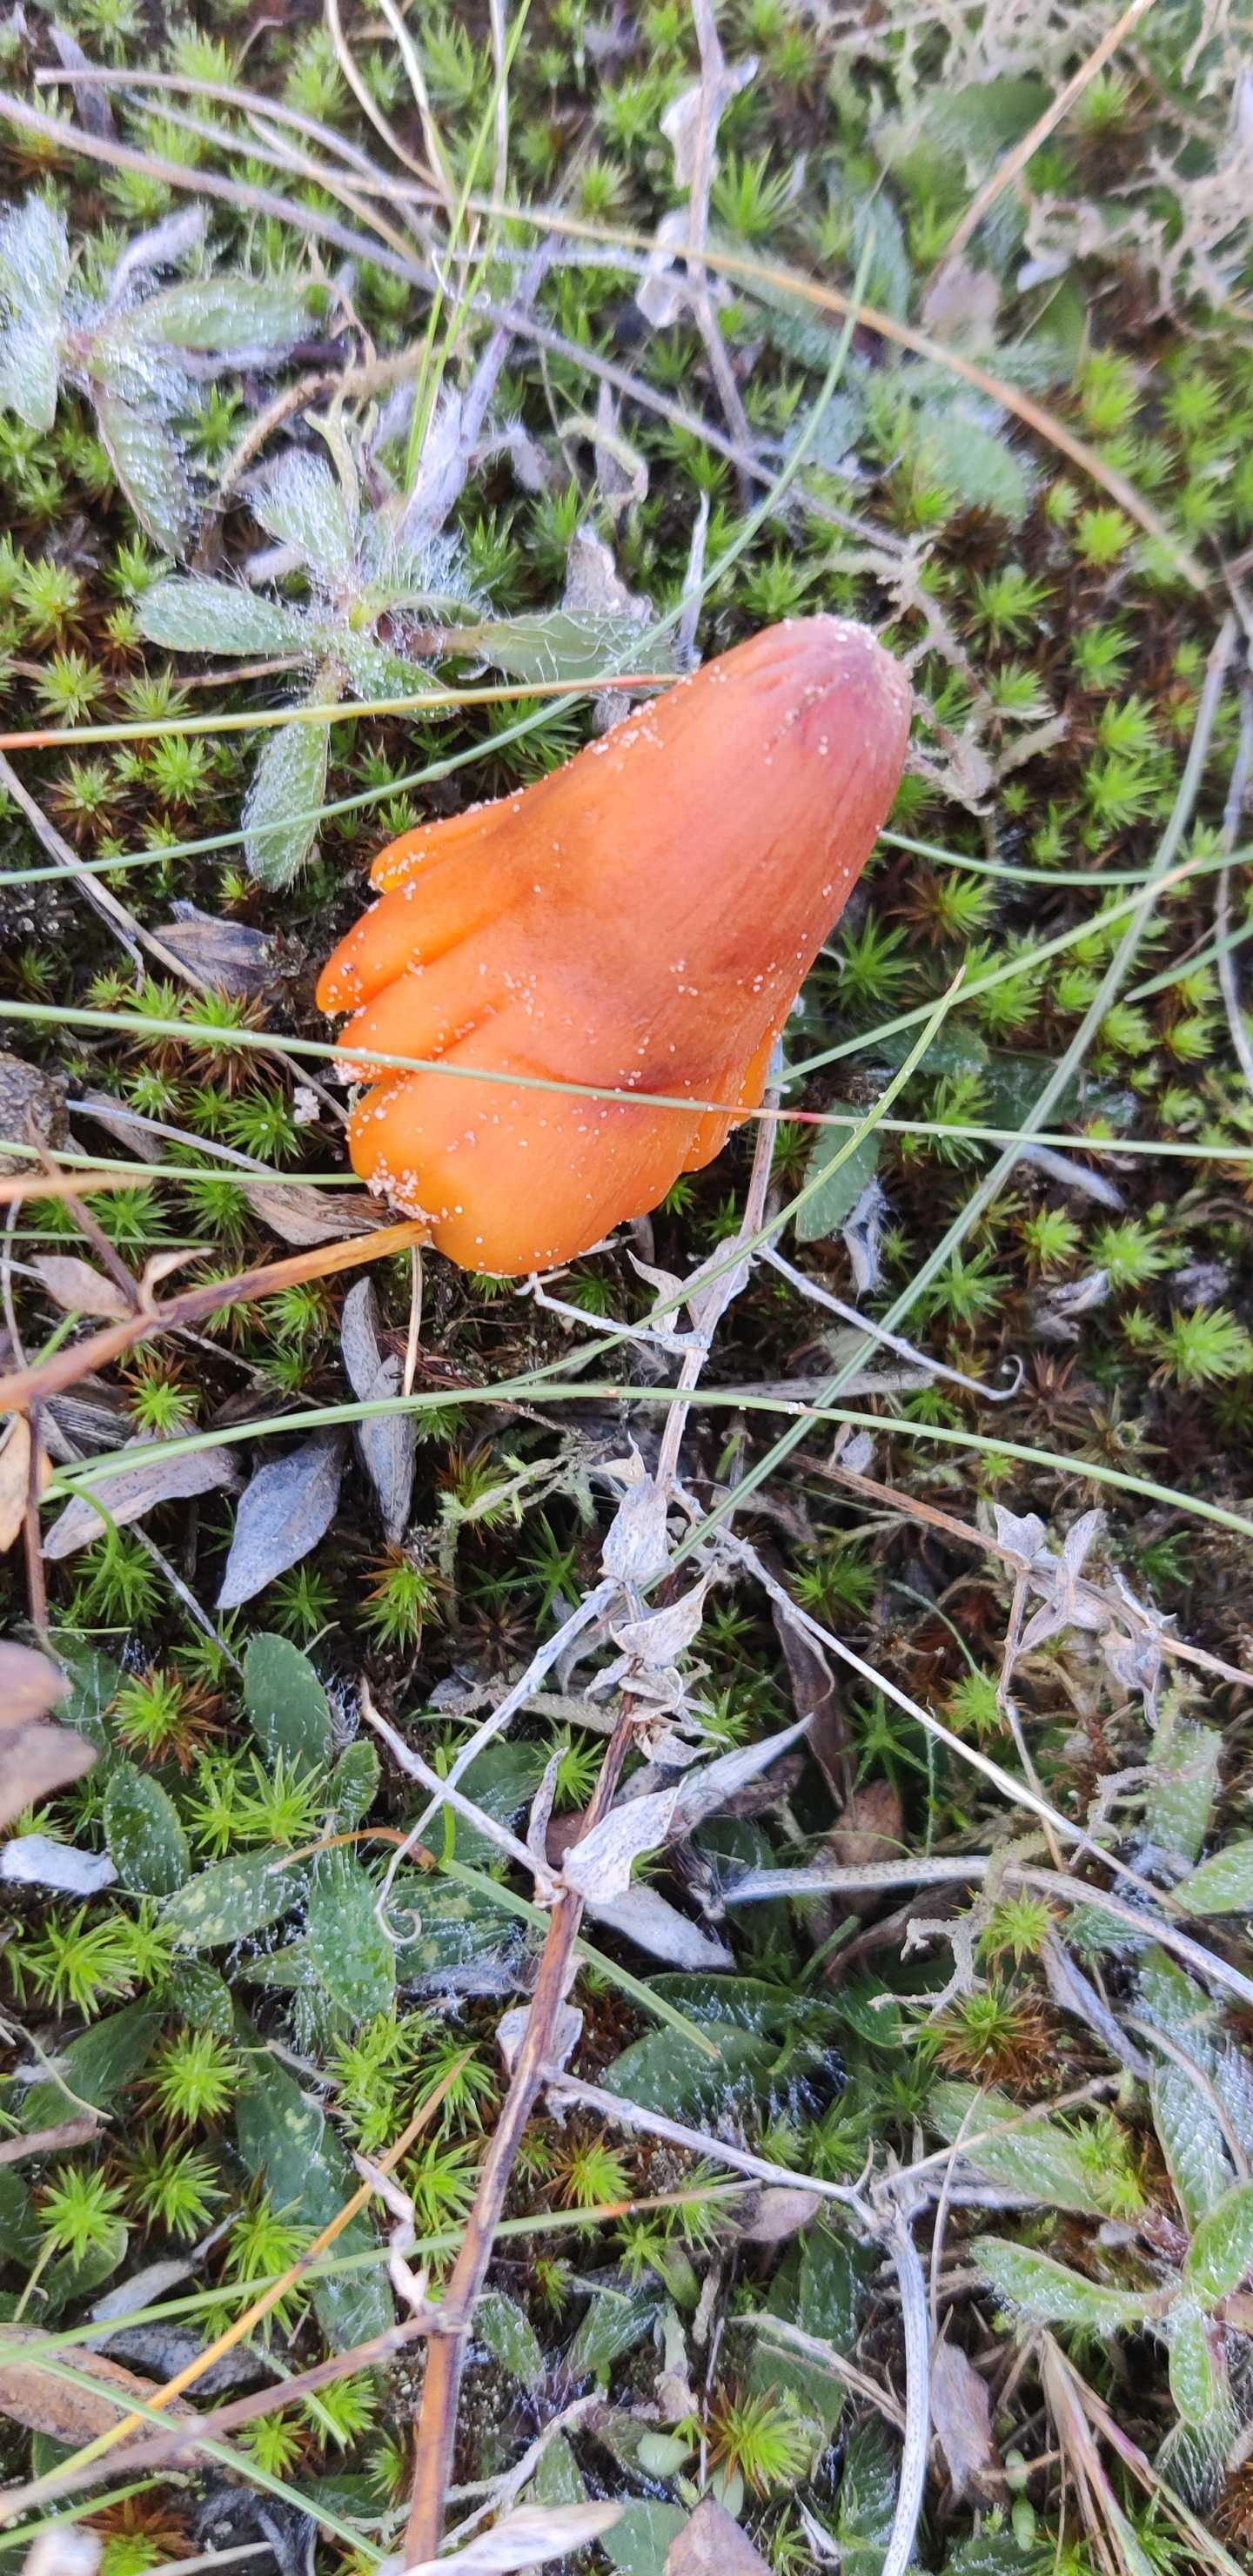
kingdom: Fungi
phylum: Basidiomycota
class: Agaricomycetes
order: Agaricales
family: Hygrophoraceae
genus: Hygrocybe
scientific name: Hygrocybe conica
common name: kegle-vokshat
